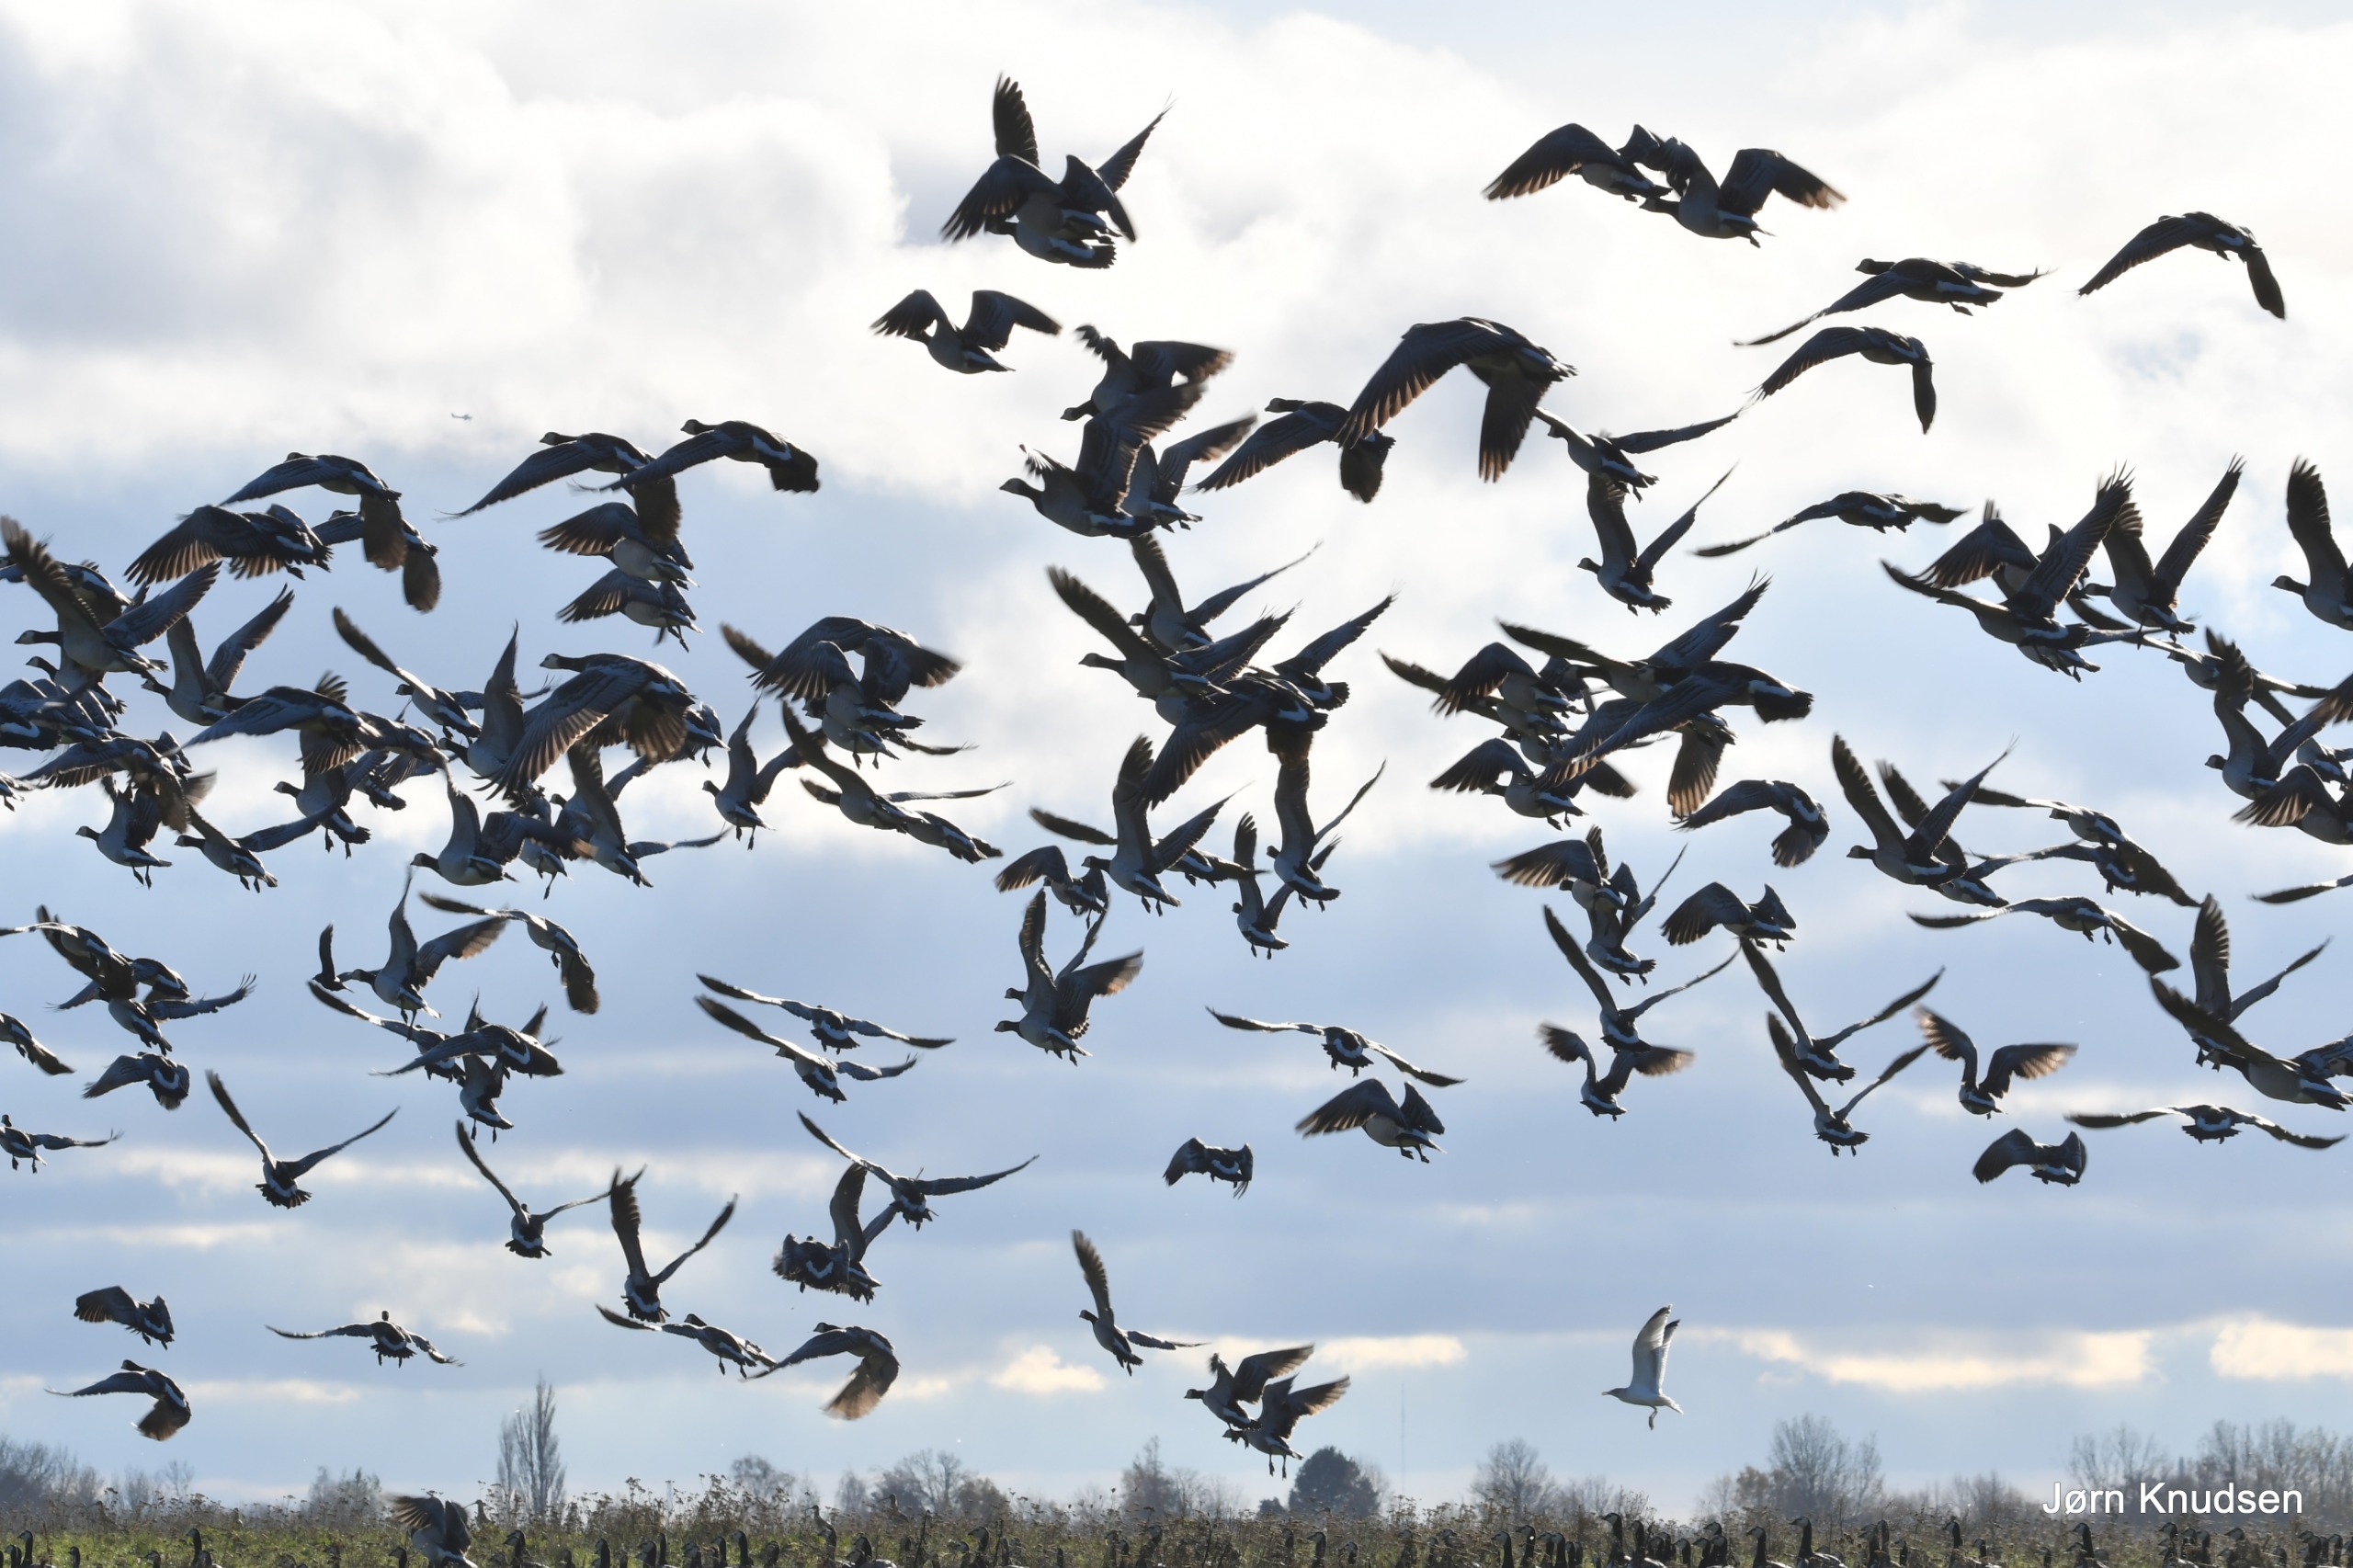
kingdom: Animalia
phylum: Chordata
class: Aves
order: Anseriformes
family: Anatidae
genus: Branta
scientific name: Branta leucopsis
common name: Bramgås
